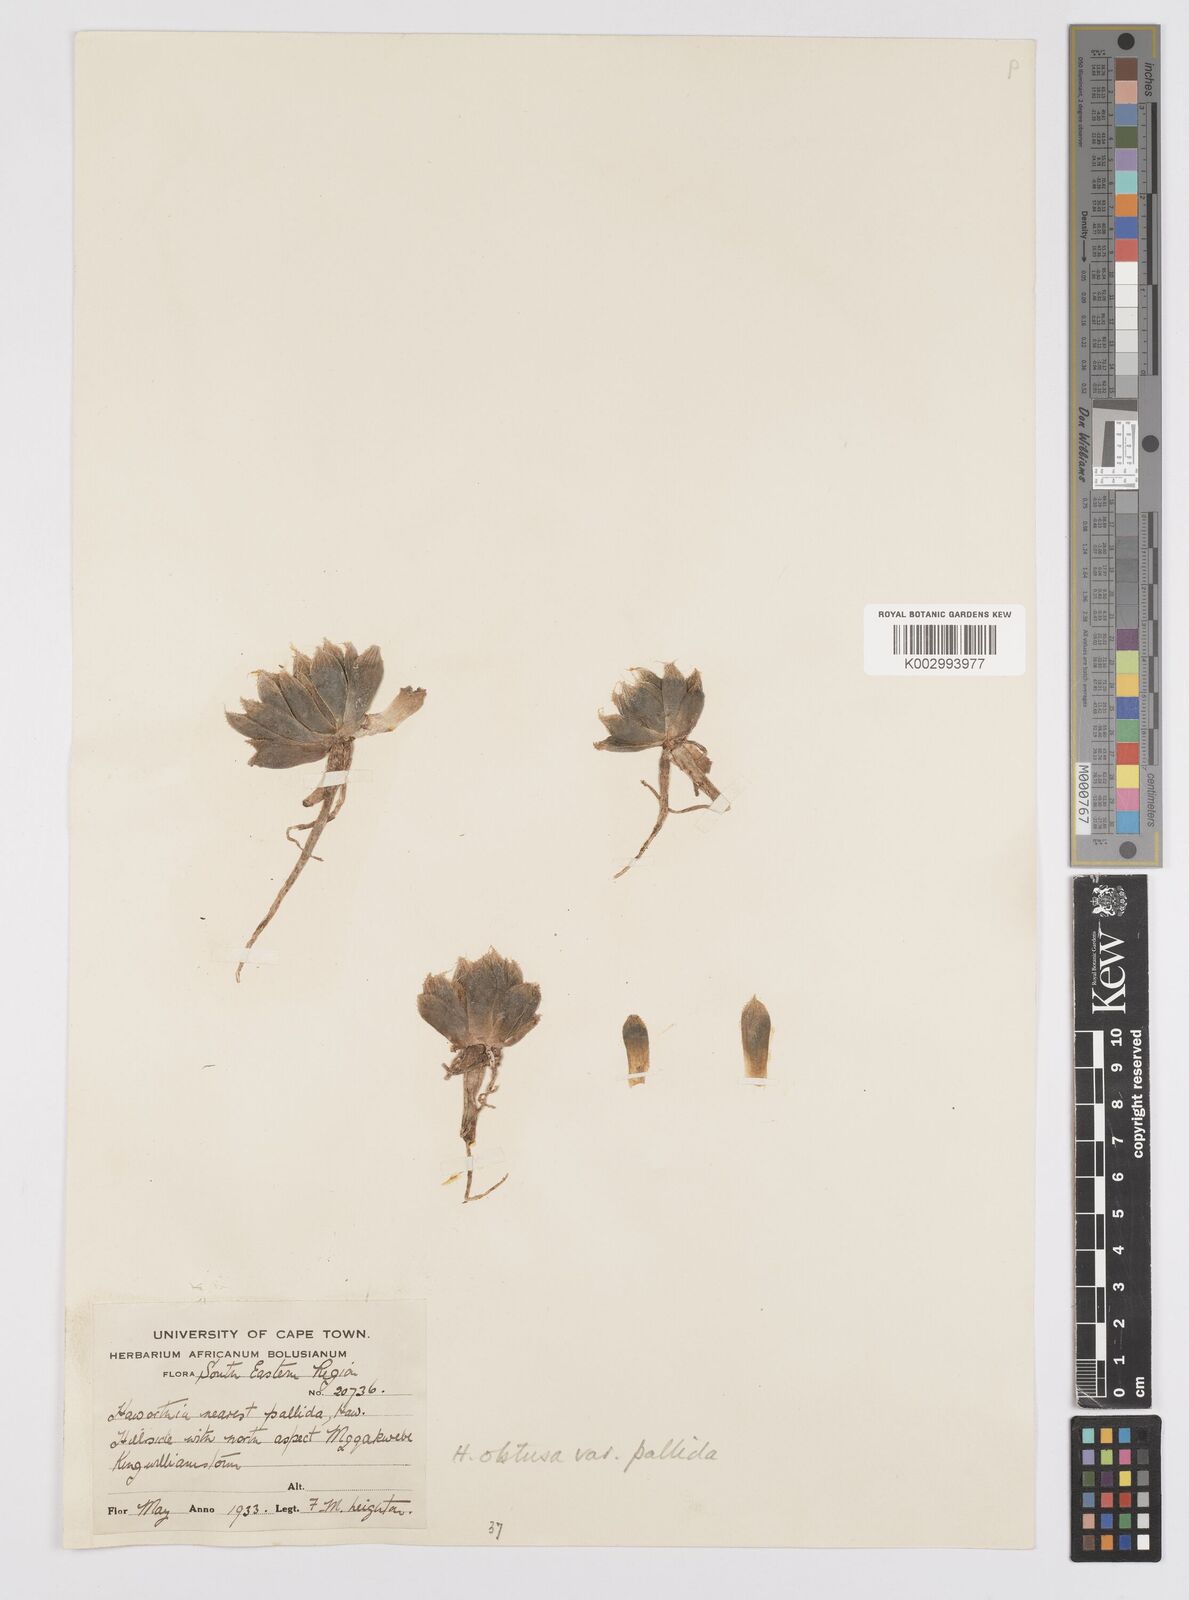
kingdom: Plantae
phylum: Tracheophyta
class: Liliopsida
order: Asparagales
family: Asphodelaceae
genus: Haworthia
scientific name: Haworthia cymbiformis
